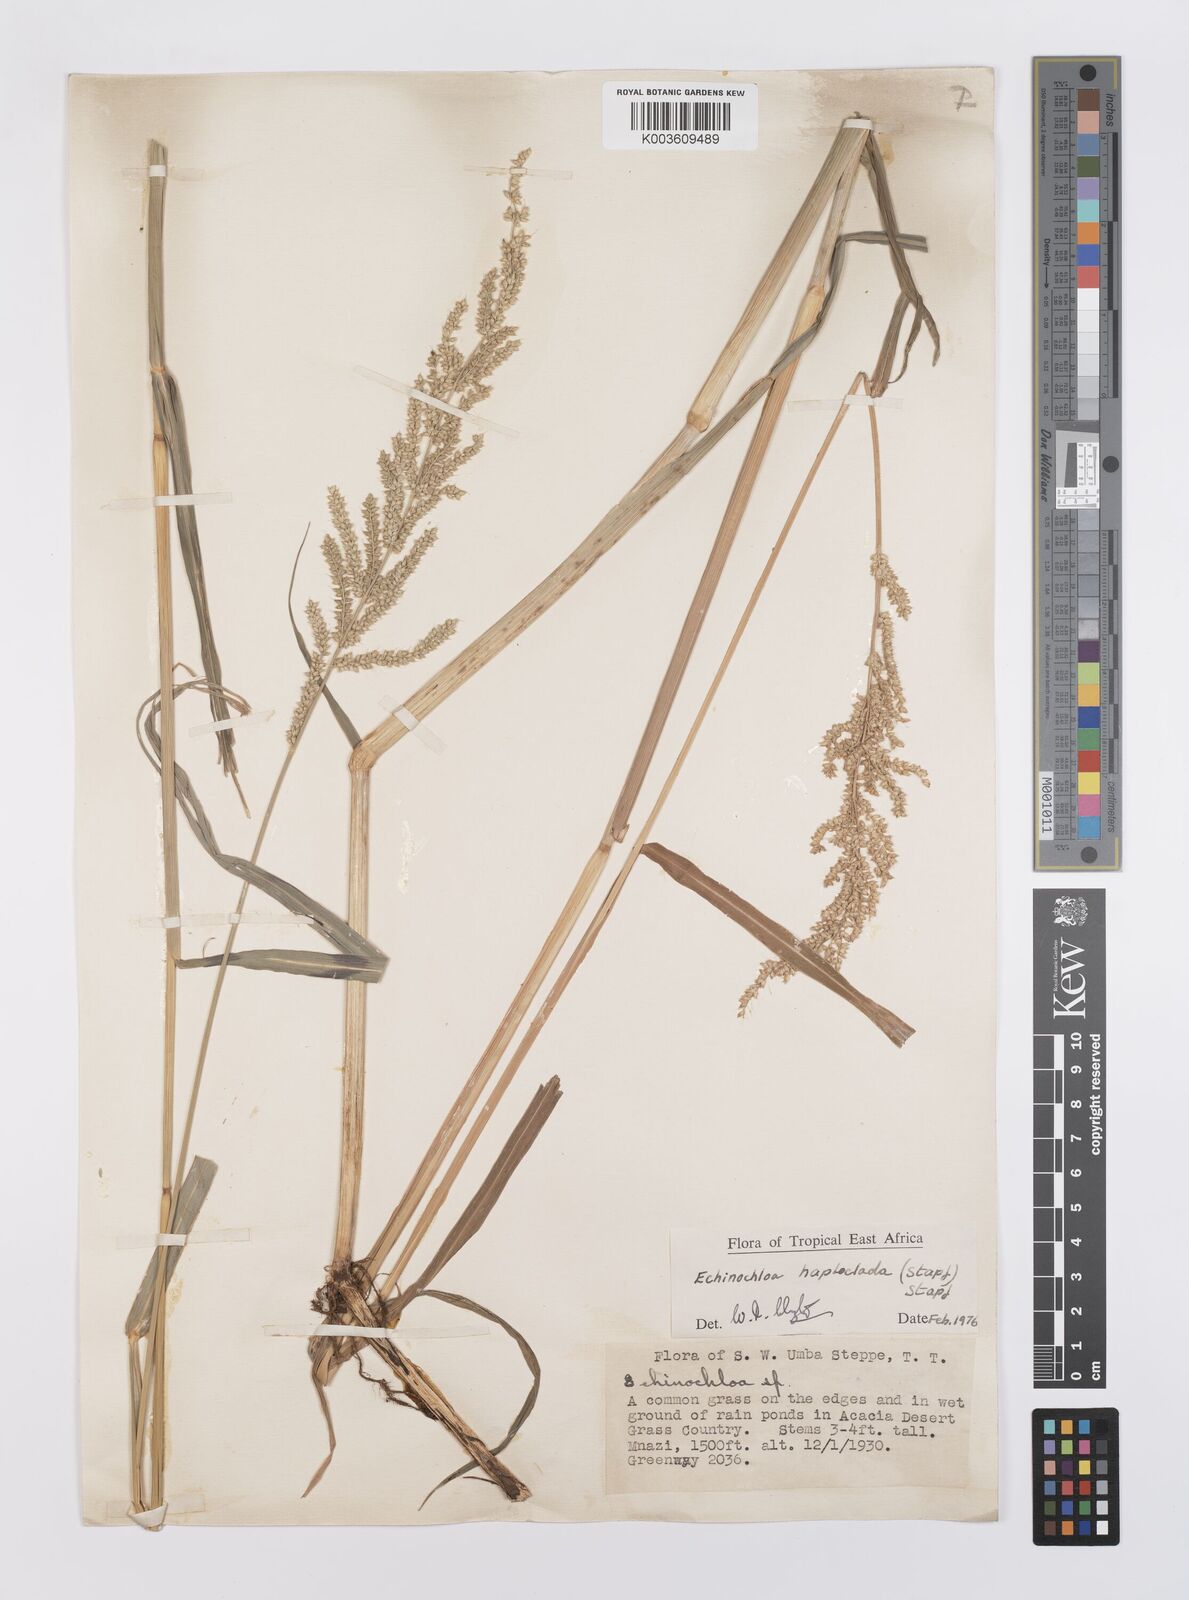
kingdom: Plantae
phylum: Tracheophyta
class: Liliopsida
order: Poales
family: Poaceae
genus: Echinochloa
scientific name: Echinochloa haploclada
